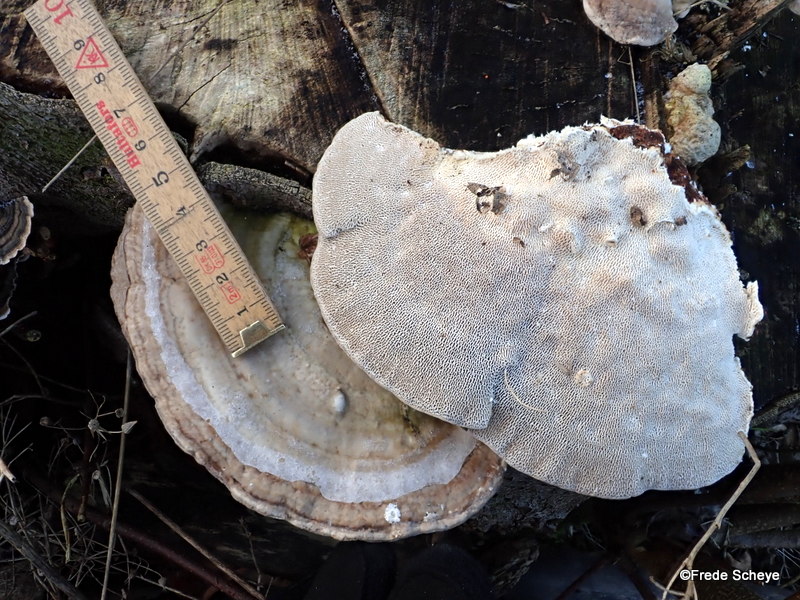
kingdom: Fungi
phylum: Basidiomycota
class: Agaricomycetes
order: Polyporales
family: Polyporaceae
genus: Trametes
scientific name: Trametes gibbosa
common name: puklet læderporesvamp
